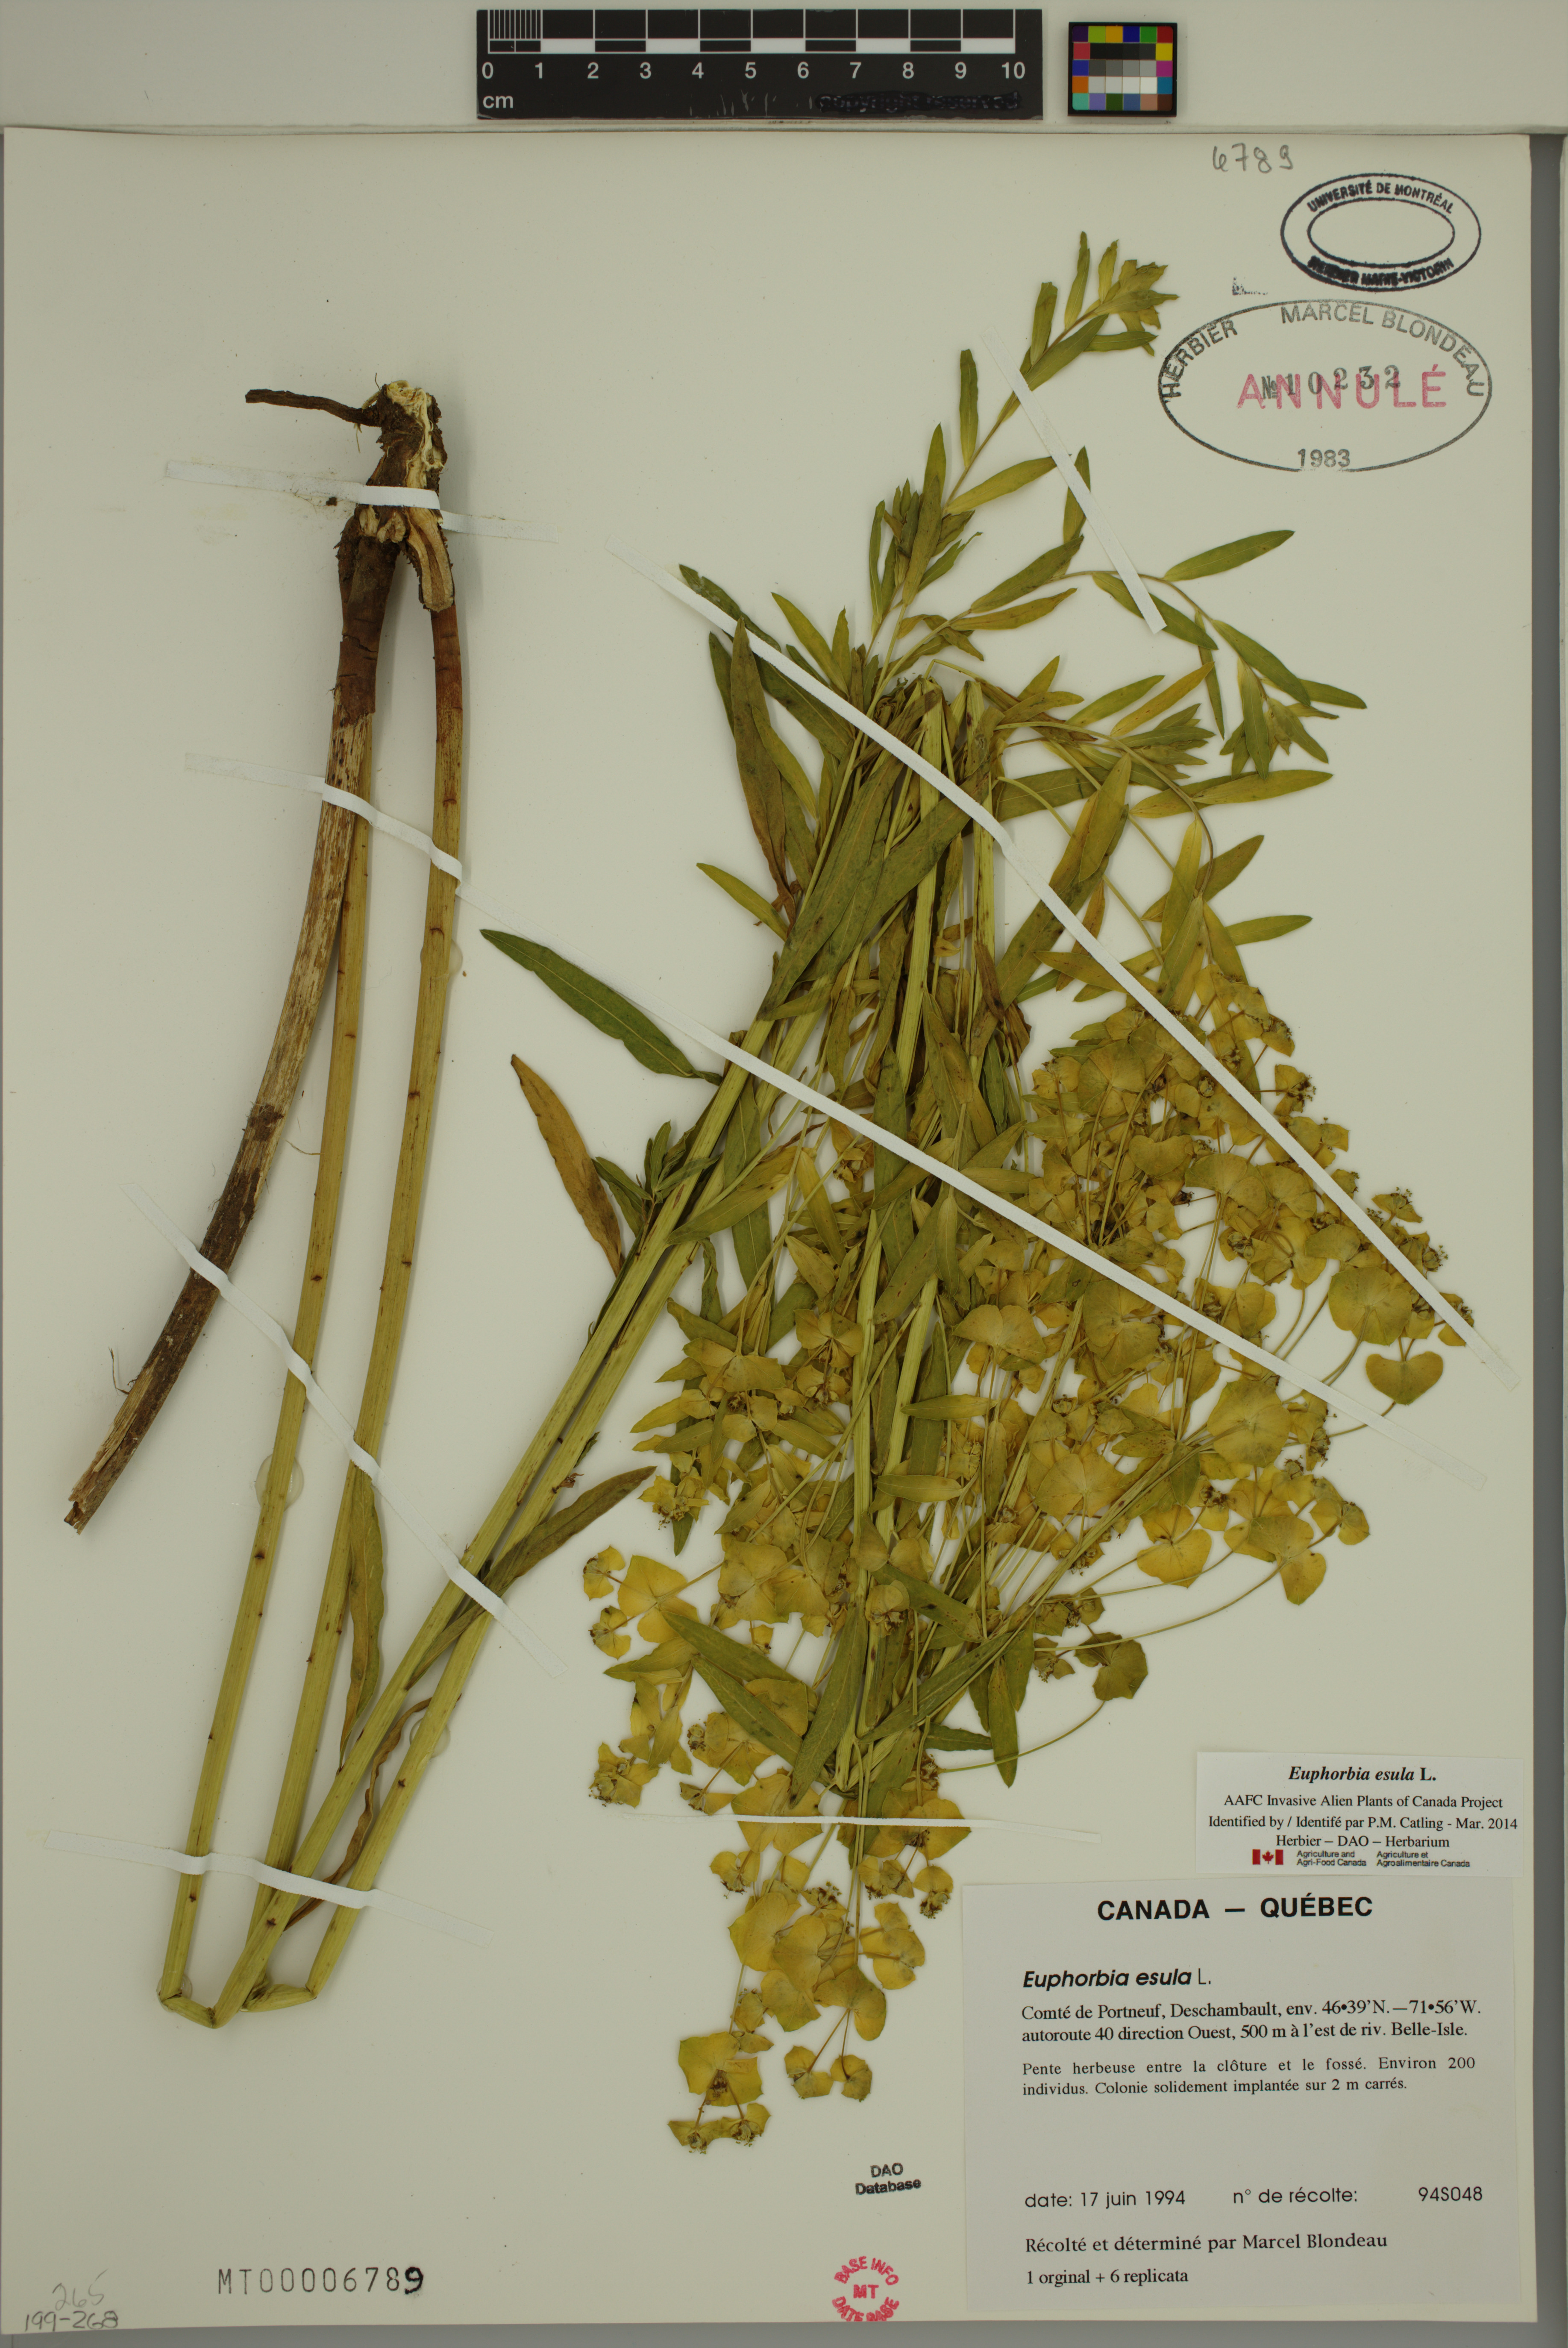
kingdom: Plantae
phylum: Tracheophyta
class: Magnoliopsida
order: Malpighiales
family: Euphorbiaceae
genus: Euphorbia
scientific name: Euphorbia esula
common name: Leafy spurge
